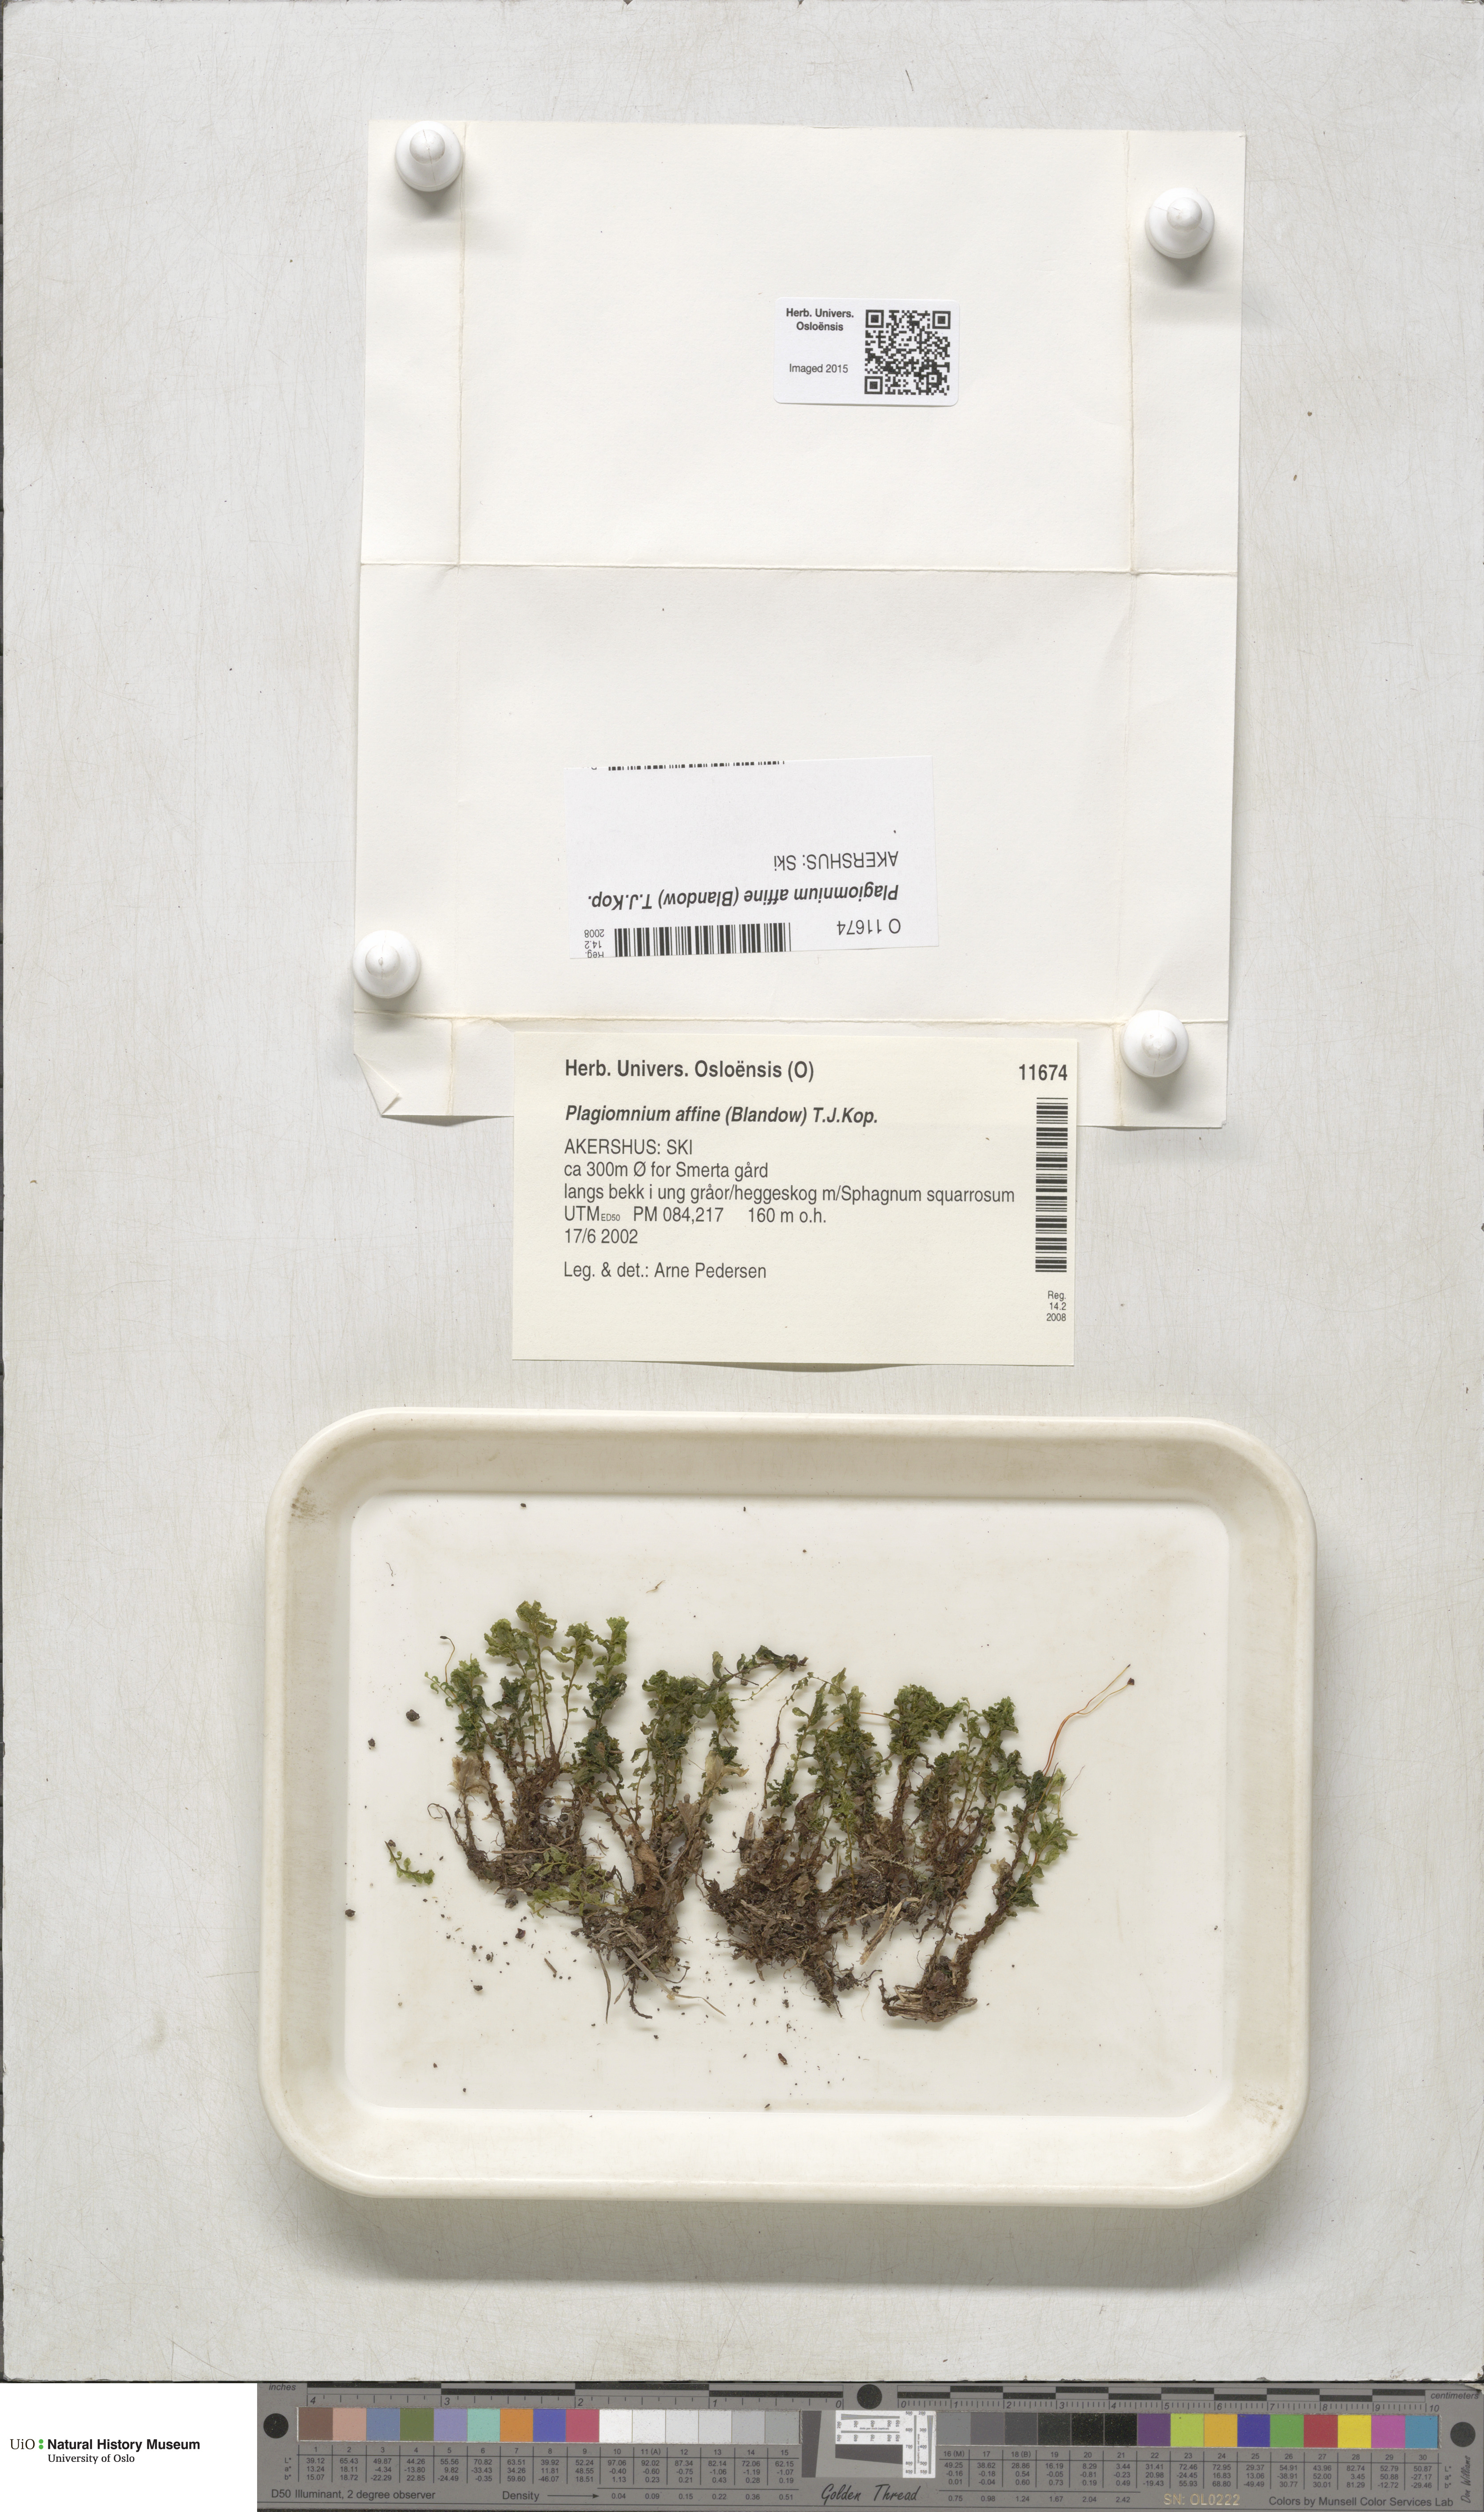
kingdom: Plantae
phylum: Bryophyta
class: Bryopsida
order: Bryales
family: Mniaceae
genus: Plagiomnium
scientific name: Plagiomnium affine
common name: Many-fruited thyme-moss
